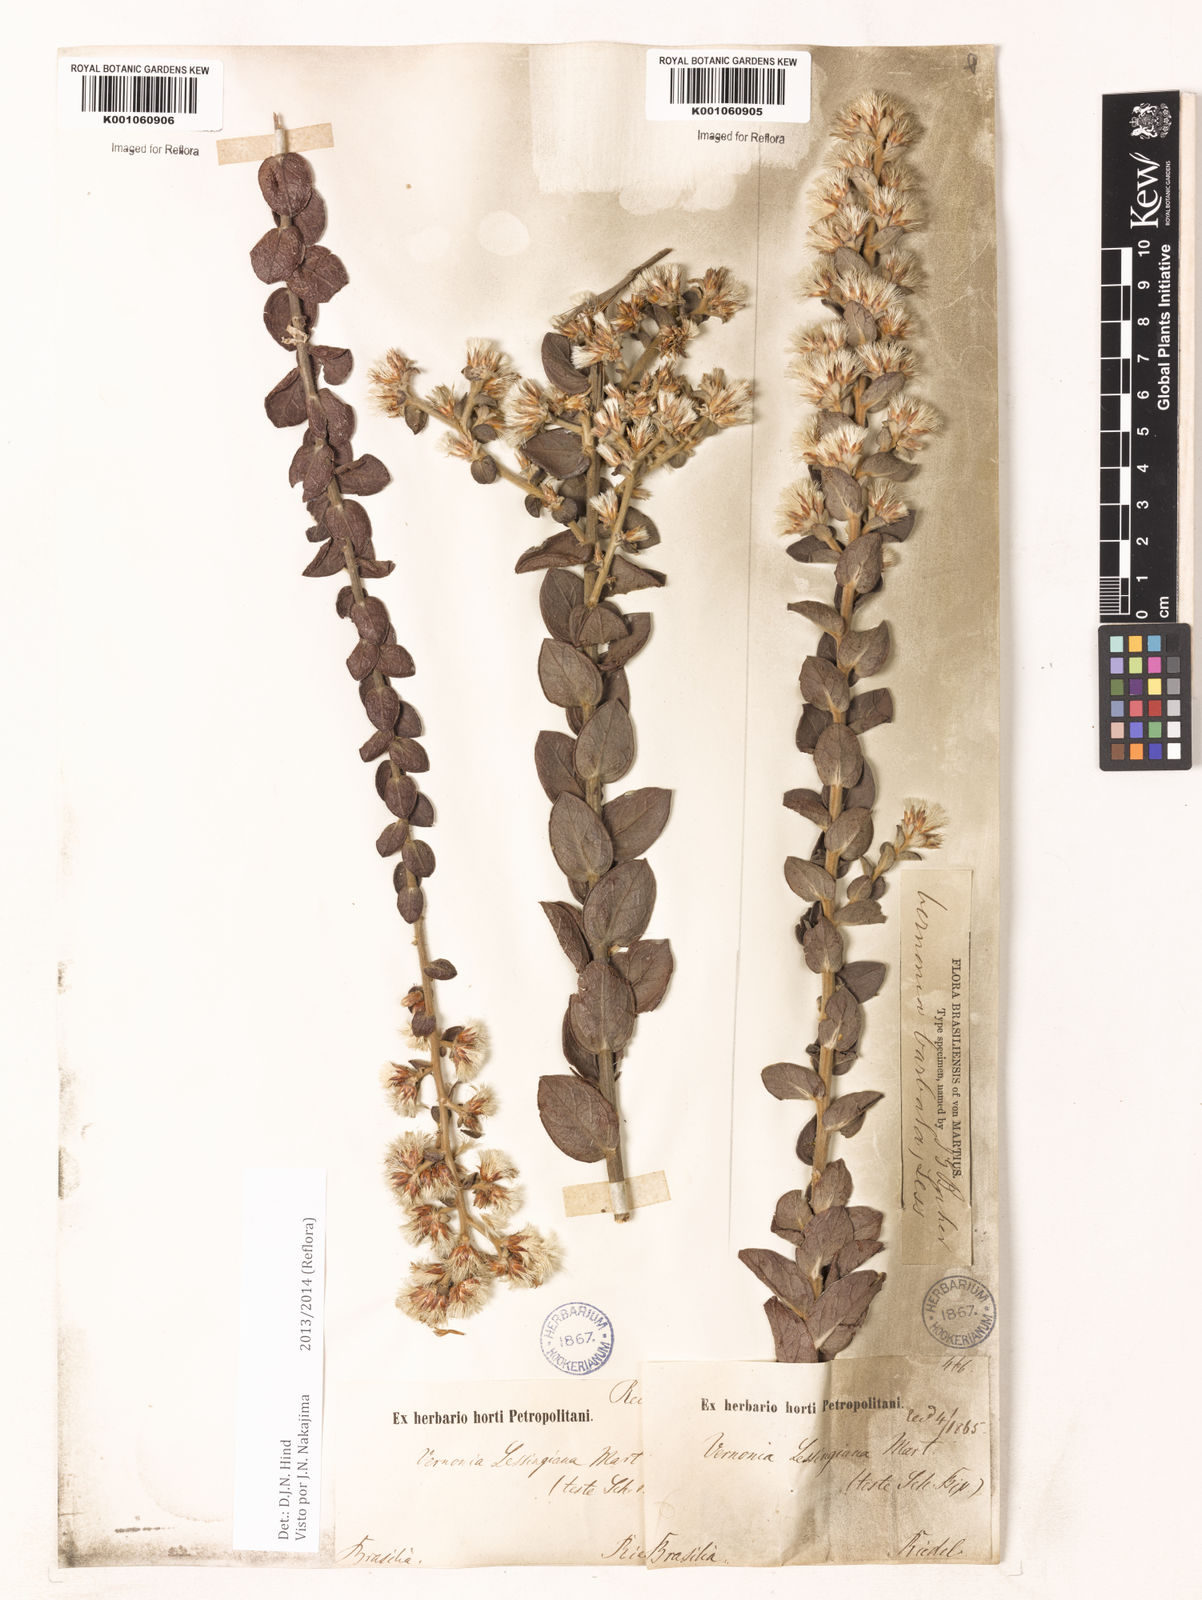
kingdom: Plantae
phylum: Tracheophyta
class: Magnoliopsida
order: Asterales
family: Asteraceae
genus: Lepidaploa
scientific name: Lepidaploa barbata
